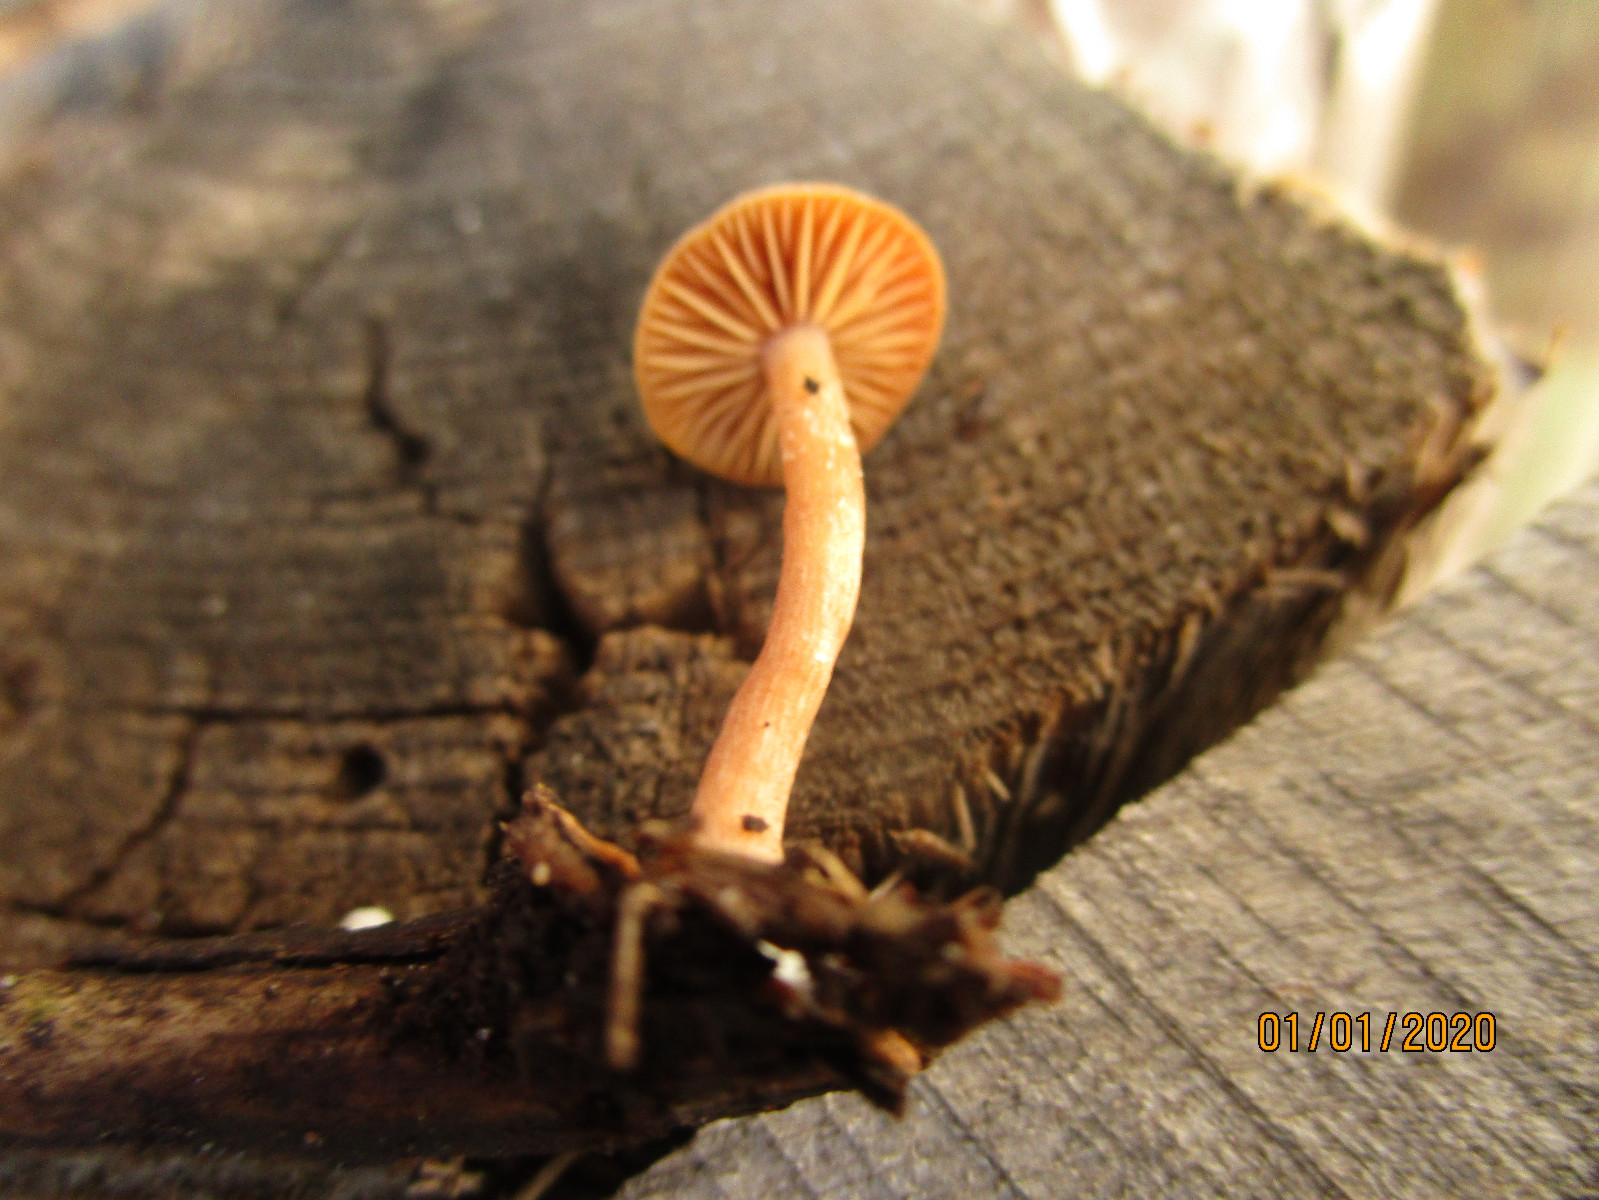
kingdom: Fungi
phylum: Basidiomycota
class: Agaricomycetes
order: Agaricales
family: Tubariaceae
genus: Tubaria
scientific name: Tubaria furfuracea
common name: kliddet fnughat
